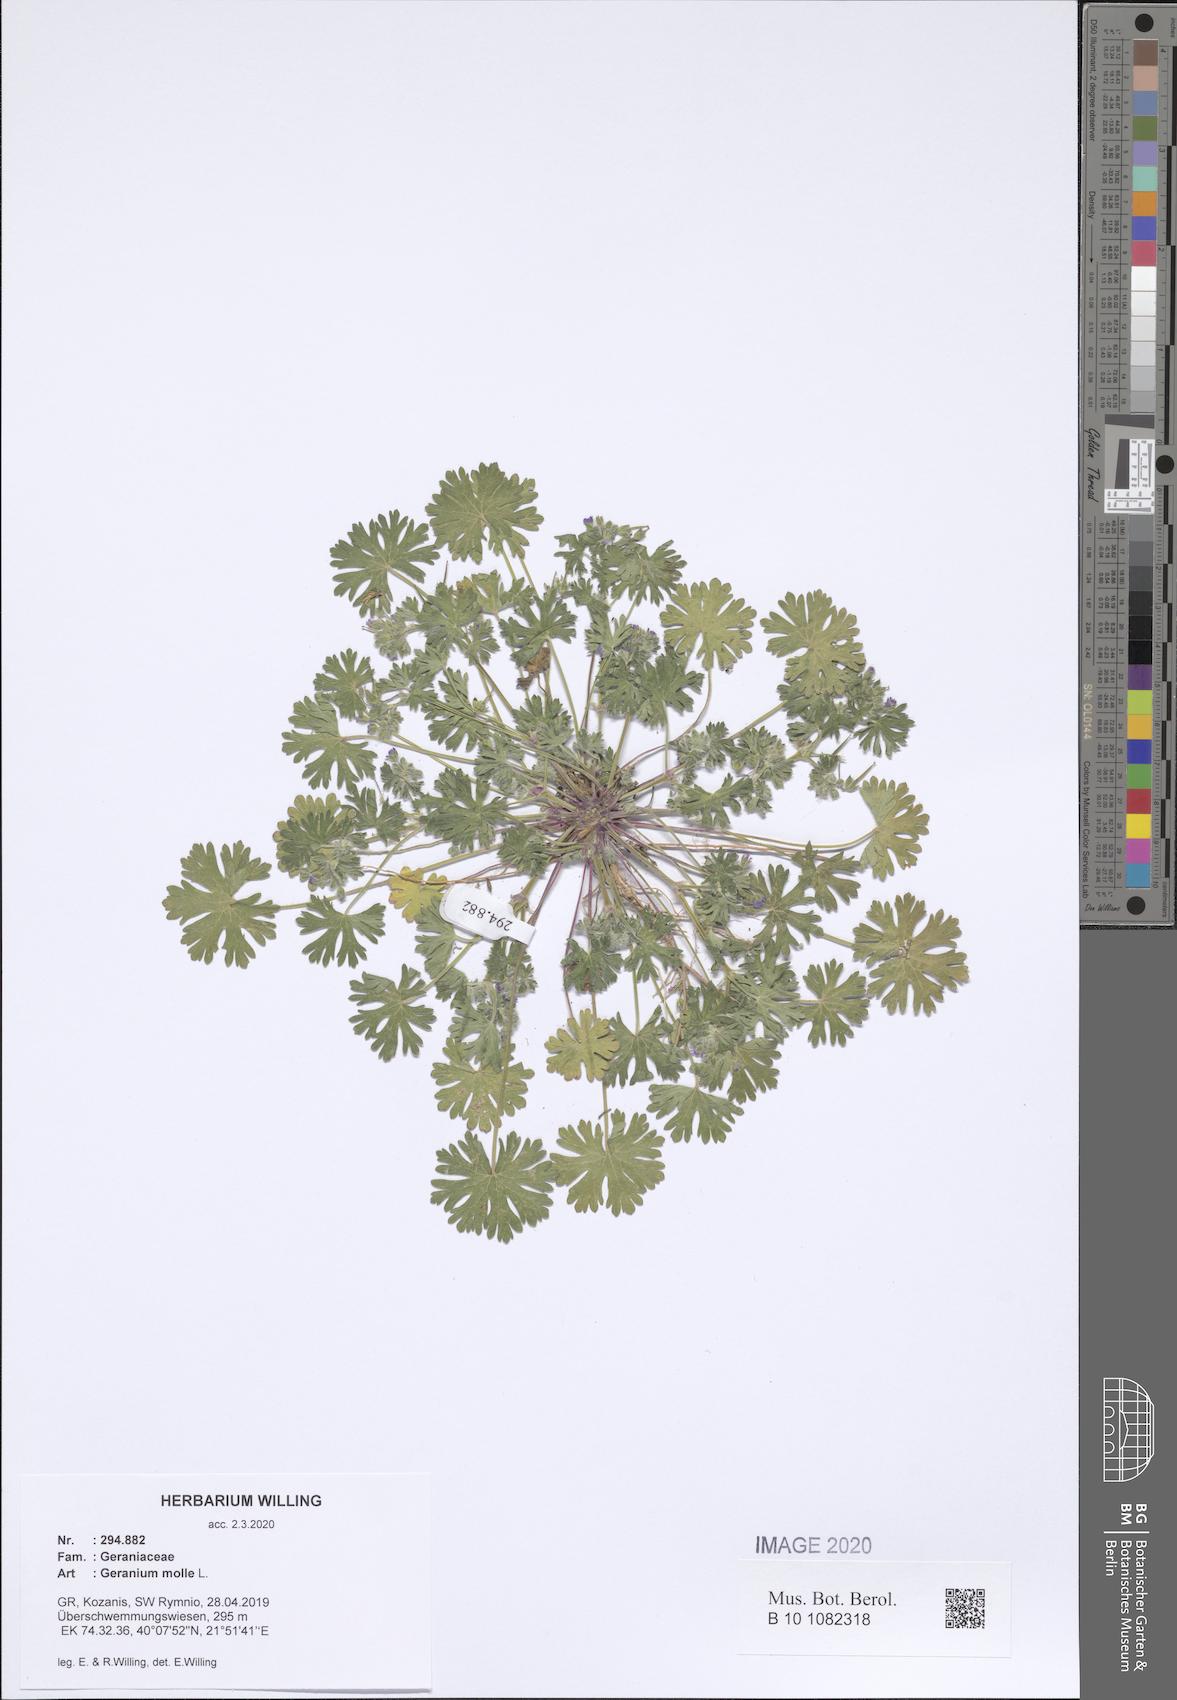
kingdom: Plantae
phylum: Tracheophyta
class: Magnoliopsida
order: Geraniales
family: Geraniaceae
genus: Geranium
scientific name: Geranium molle
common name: Dove's-foot crane's-bill
